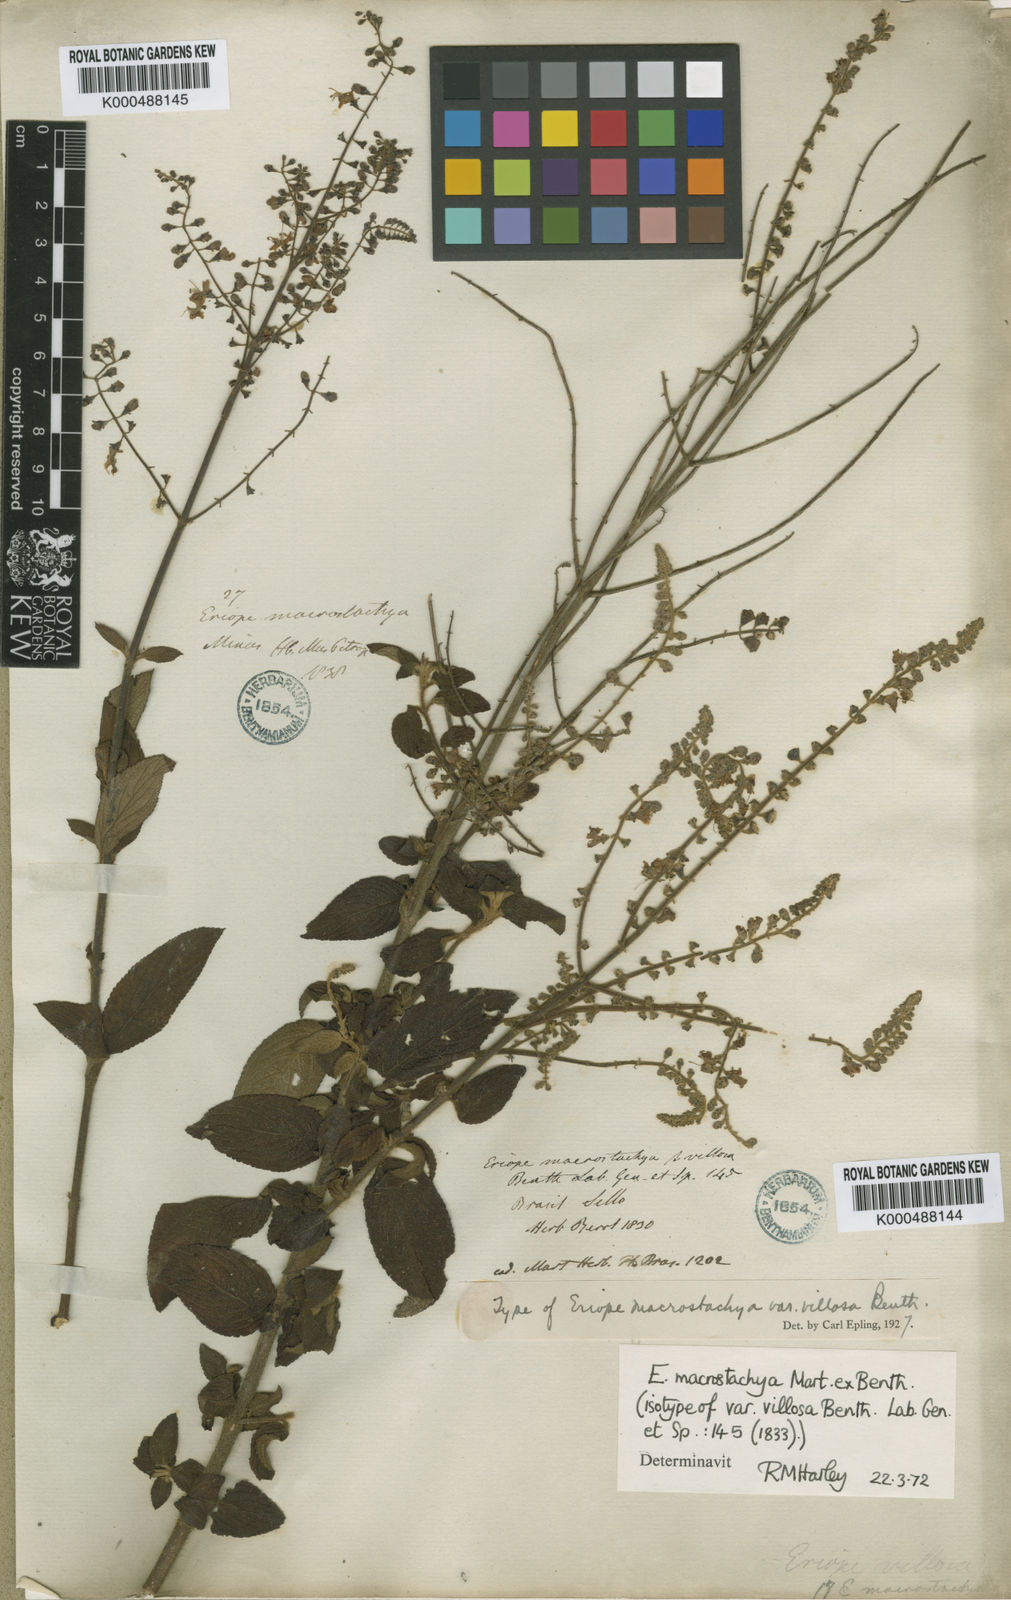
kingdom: Plantae
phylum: Tracheophyta
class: Magnoliopsida
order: Lamiales
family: Lamiaceae
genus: Eriope
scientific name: Eriope macrostachya
